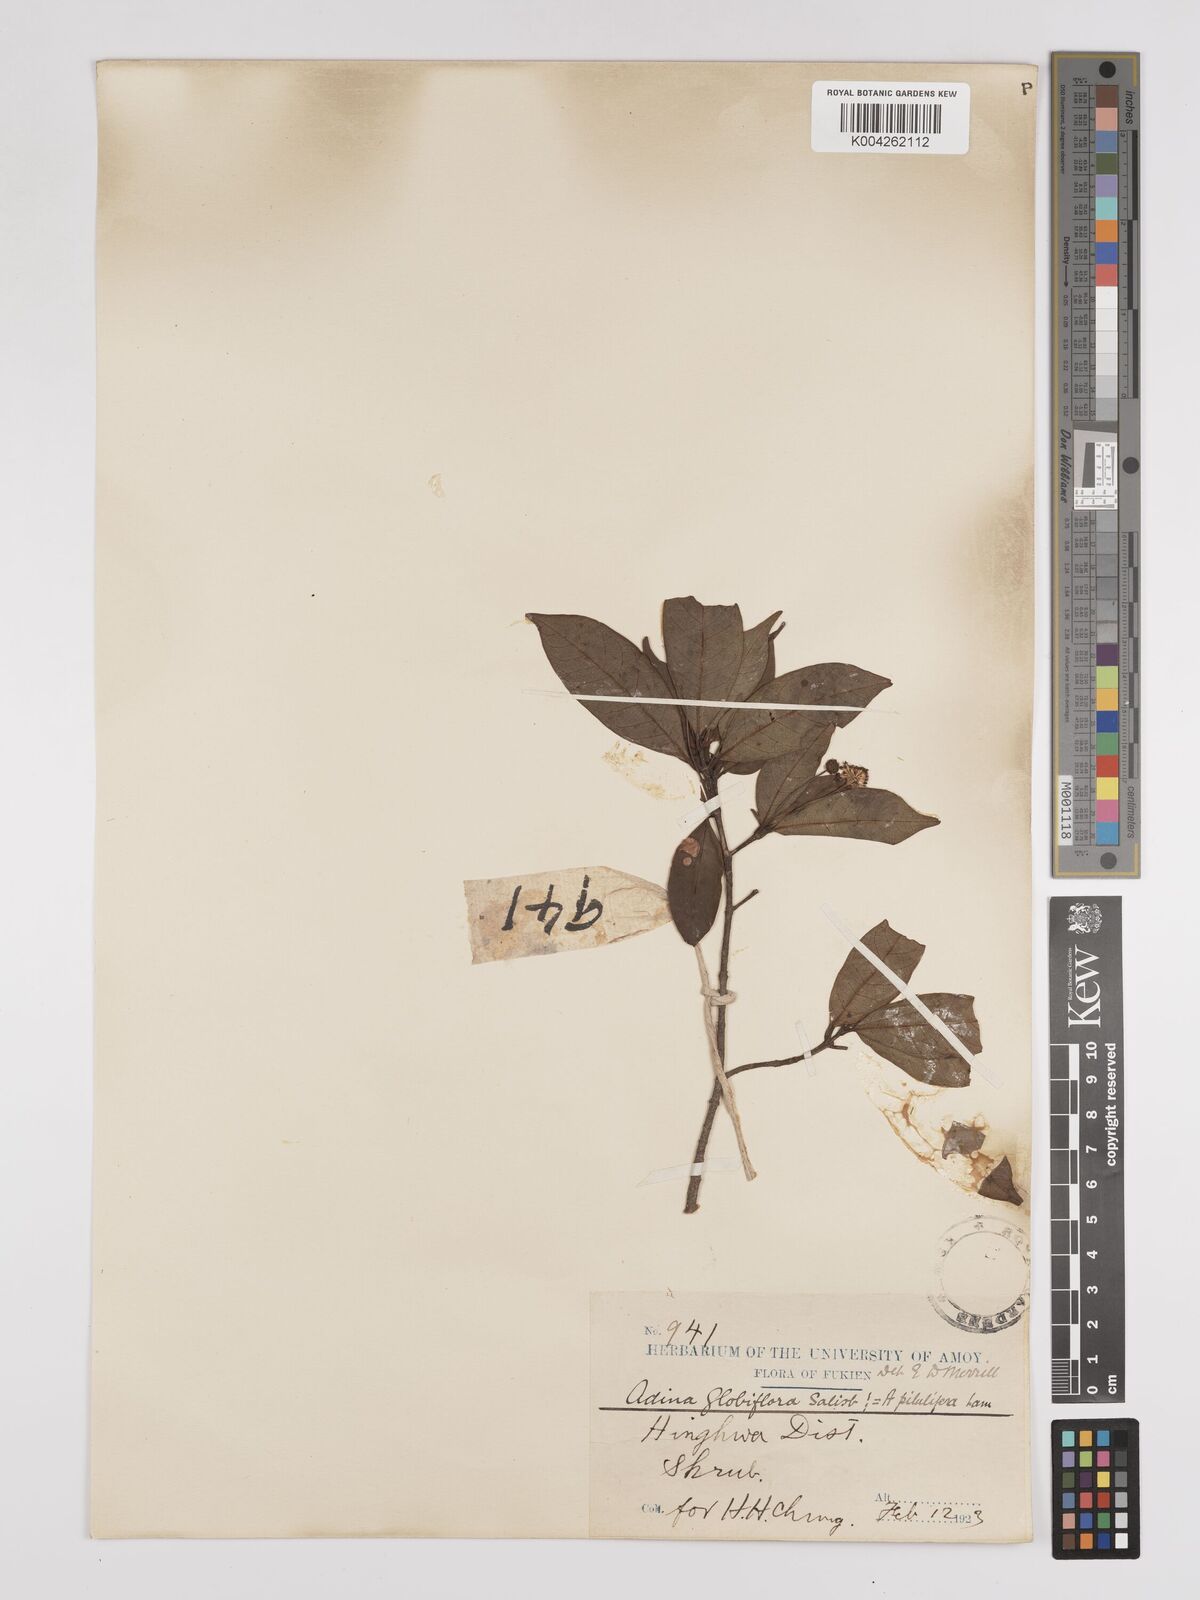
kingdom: Plantae
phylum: Tracheophyta
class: Magnoliopsida
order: Gentianales
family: Rubiaceae
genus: Adina
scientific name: Adina pilulifera
